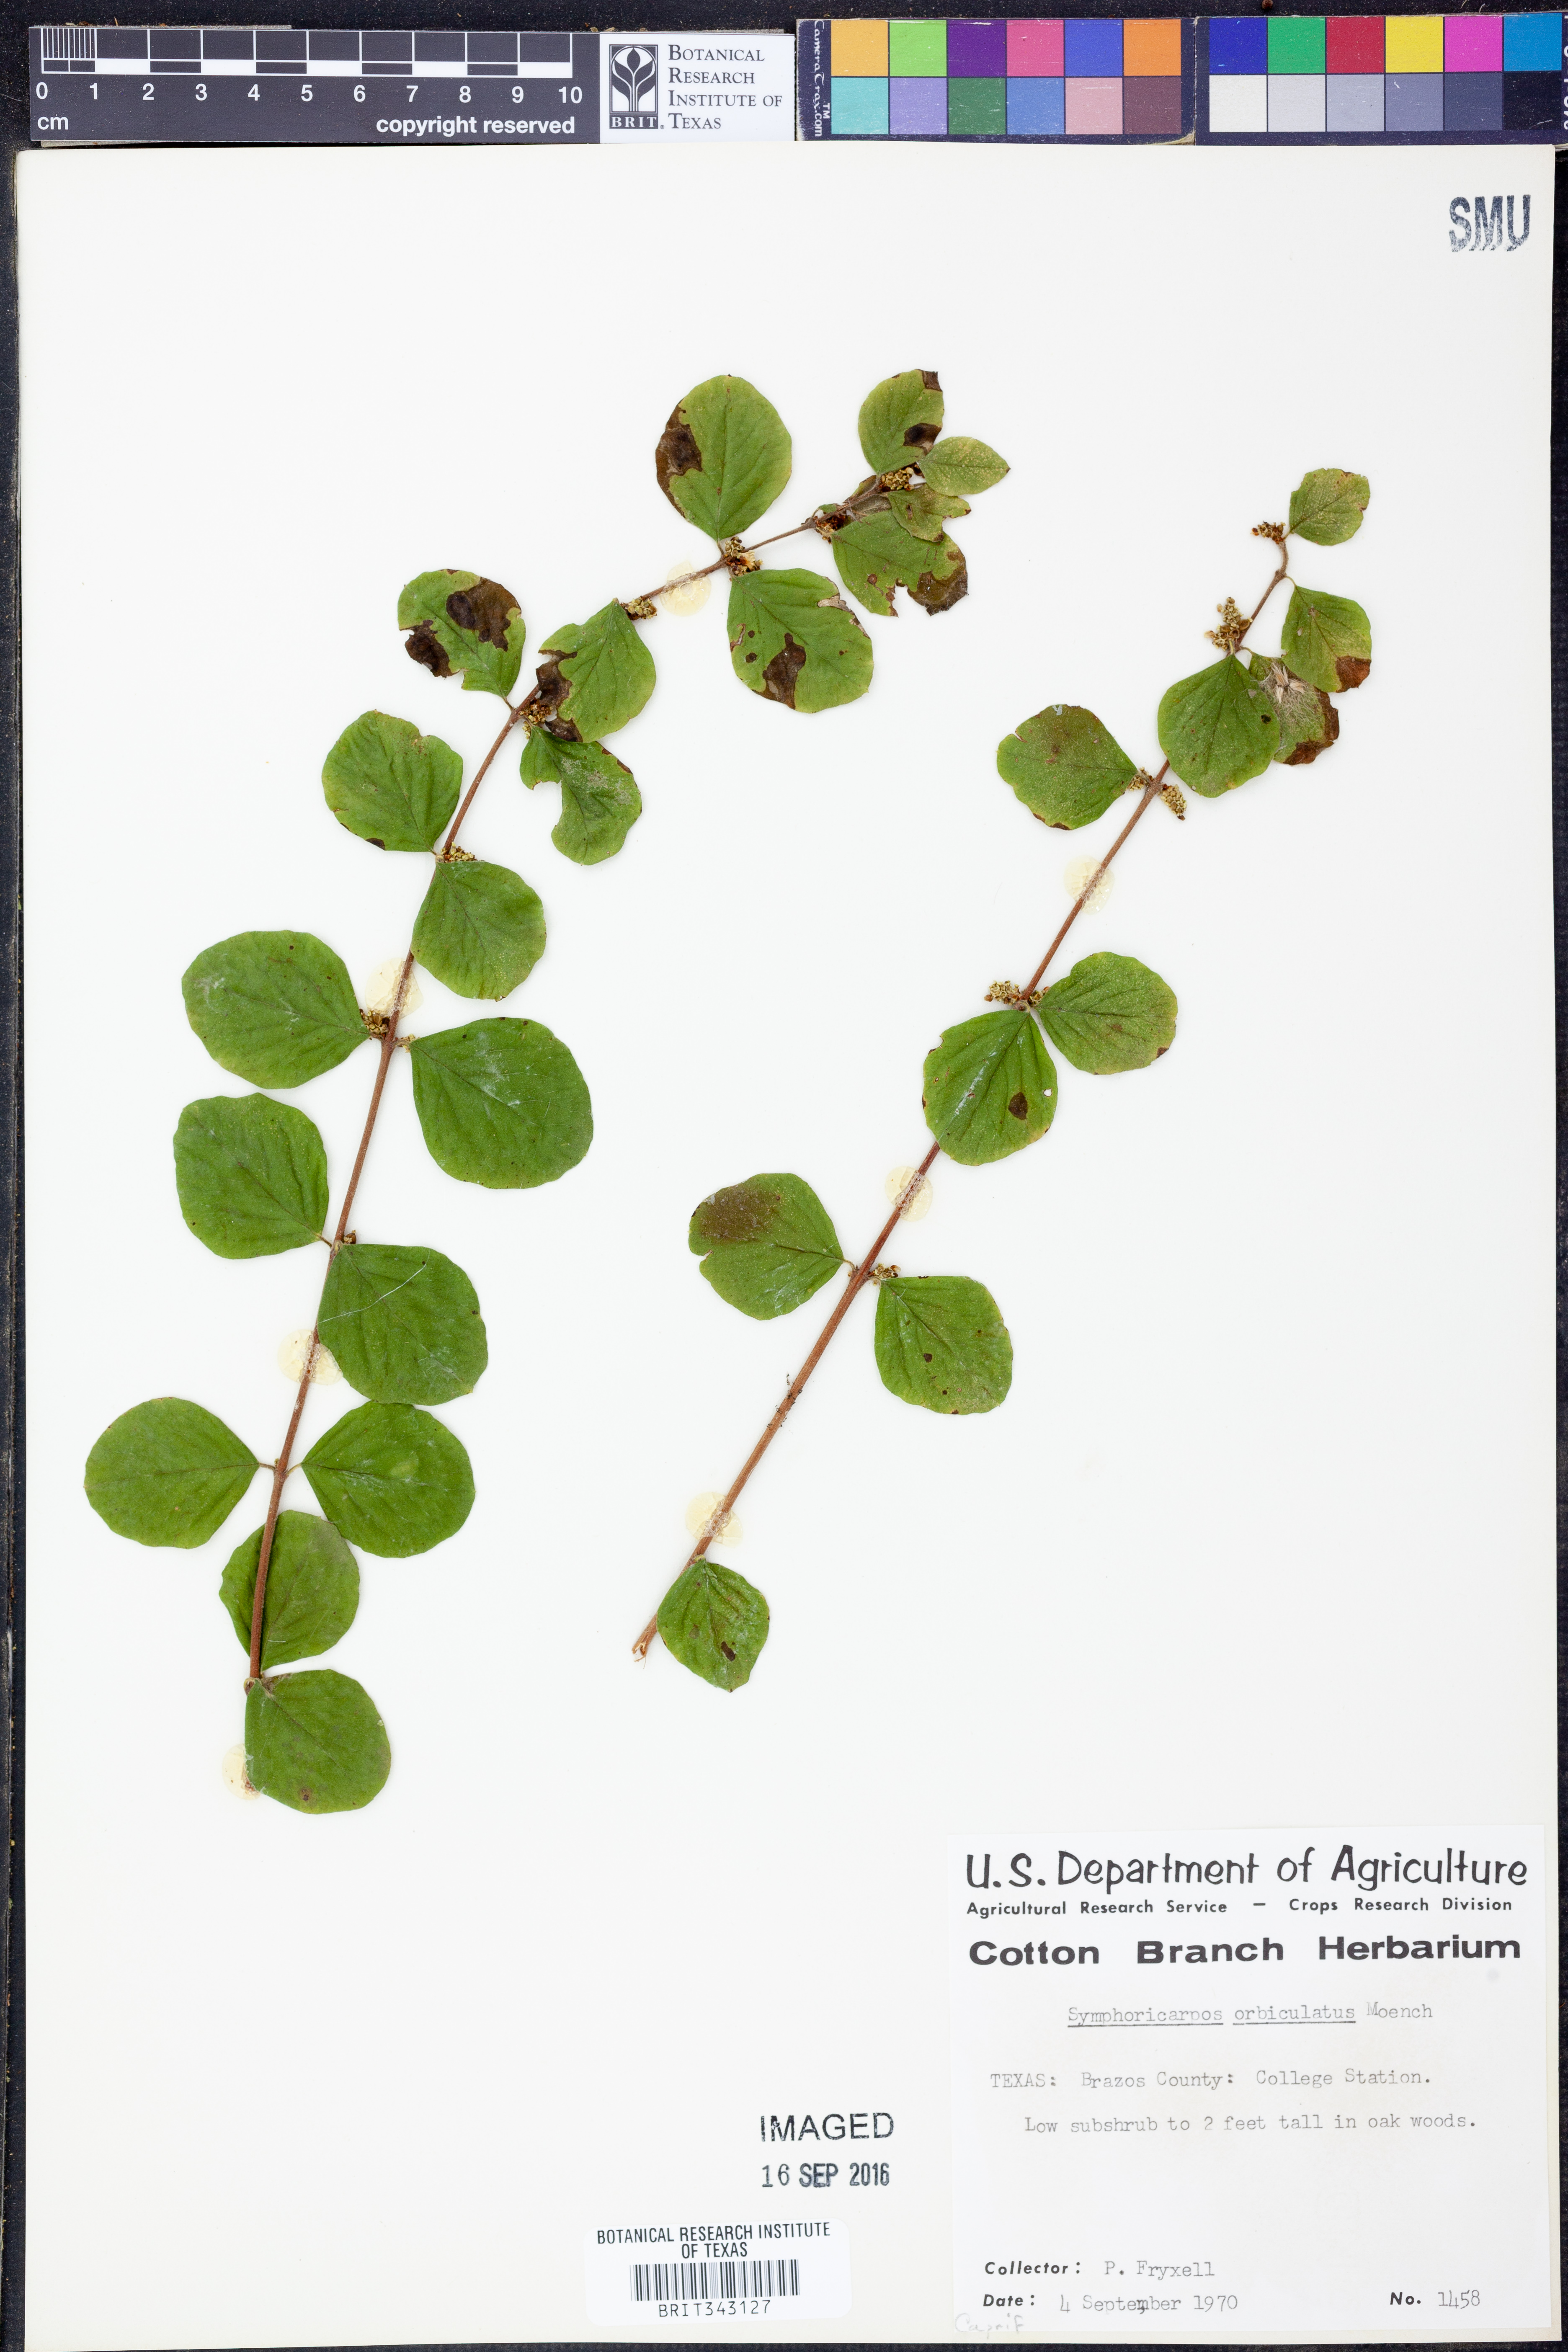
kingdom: Plantae
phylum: Tracheophyta
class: Magnoliopsida
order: Dipsacales
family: Caprifoliaceae
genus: Symphoricarpos
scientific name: Symphoricarpos orbiculatus
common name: Coralberry
